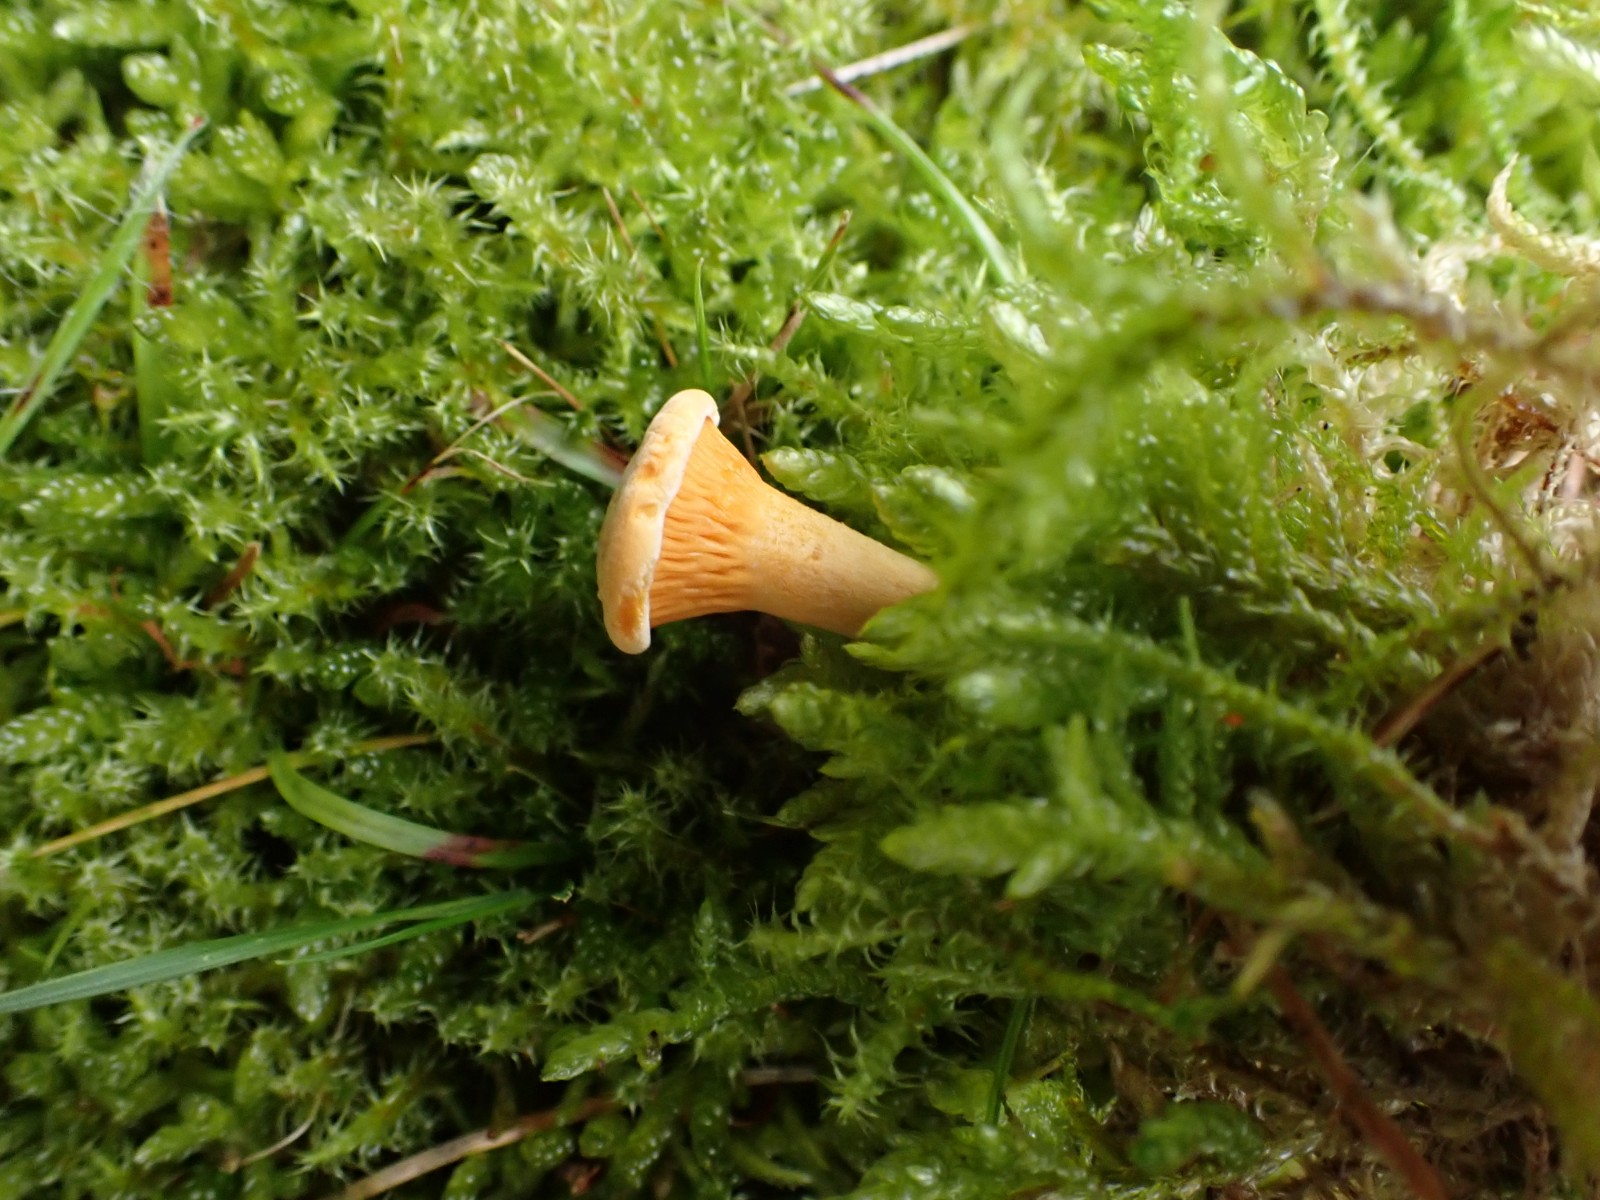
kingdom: Fungi
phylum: Basidiomycota
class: Agaricomycetes
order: Boletales
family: Hygrophoropsidaceae
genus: Hygrophoropsis
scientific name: Hygrophoropsis aurantiaca
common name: almindelig orangekantarel
